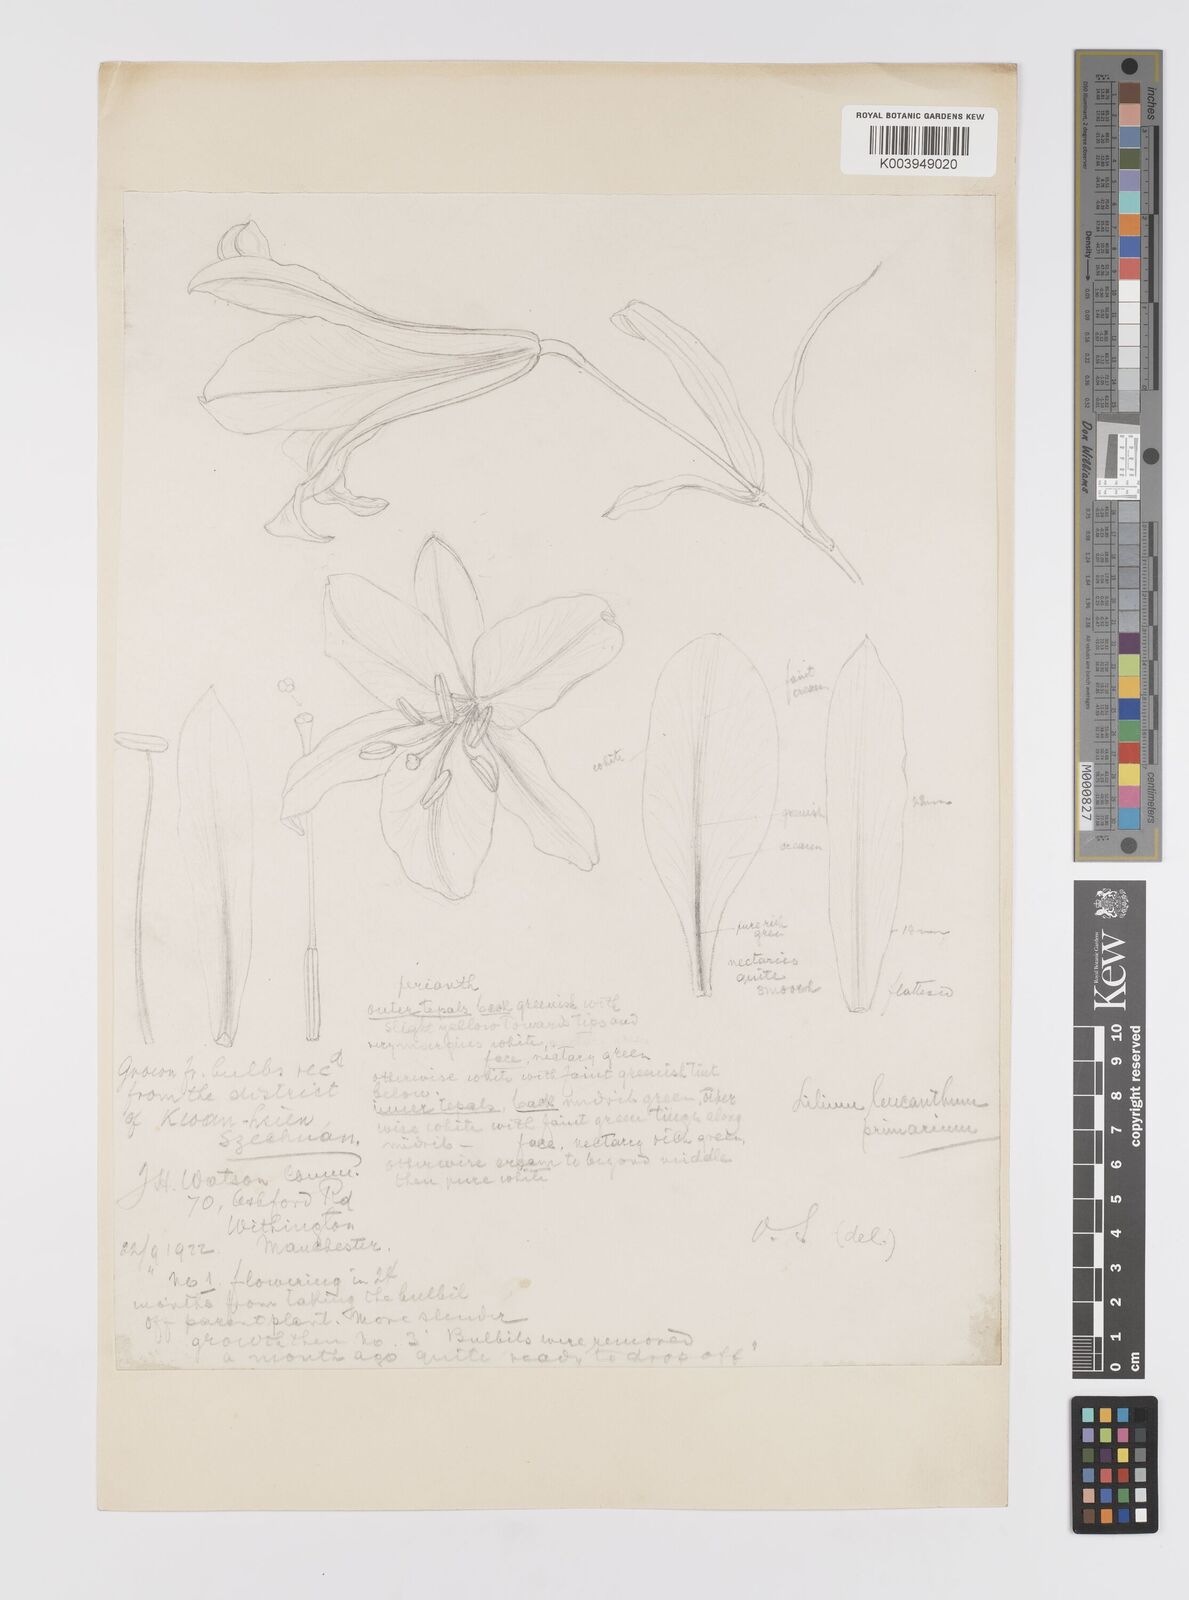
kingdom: Plantae
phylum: Tracheophyta
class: Liliopsida
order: Liliales
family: Liliaceae
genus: Lilium
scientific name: Lilium sargentiae
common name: Sargent lily
